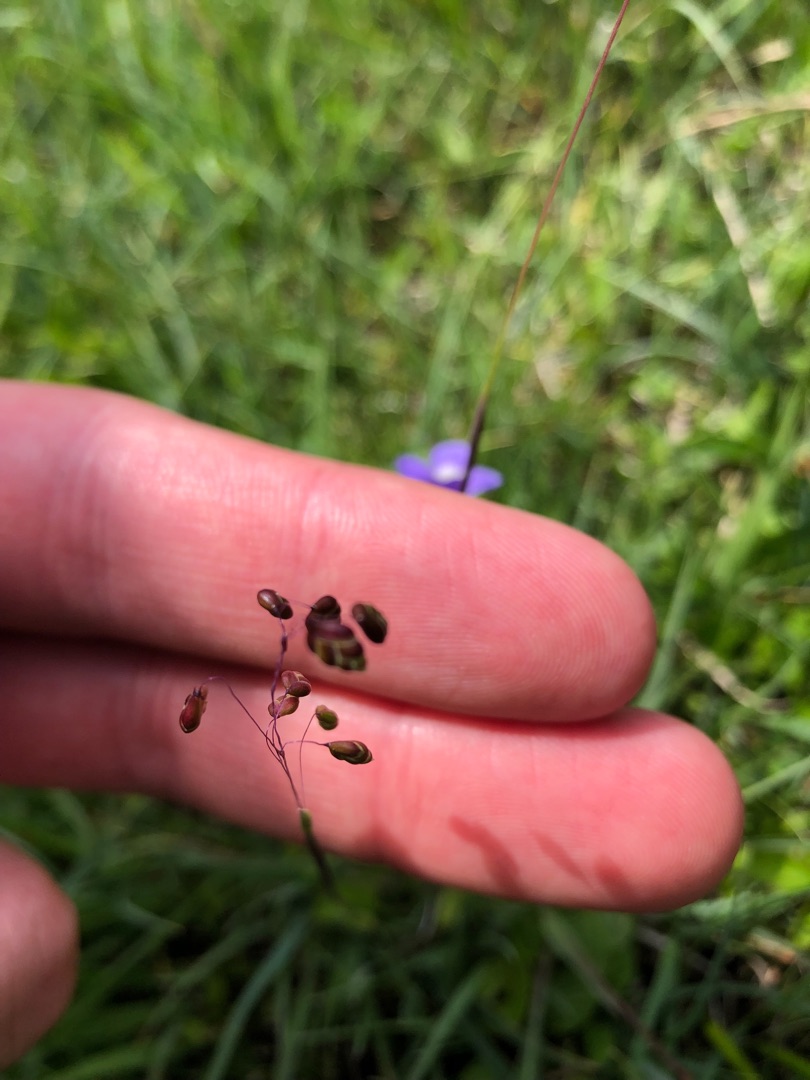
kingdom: Plantae
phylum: Tracheophyta
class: Liliopsida
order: Poales
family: Poaceae
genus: Briza
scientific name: Briza media
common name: Hjertegræs
